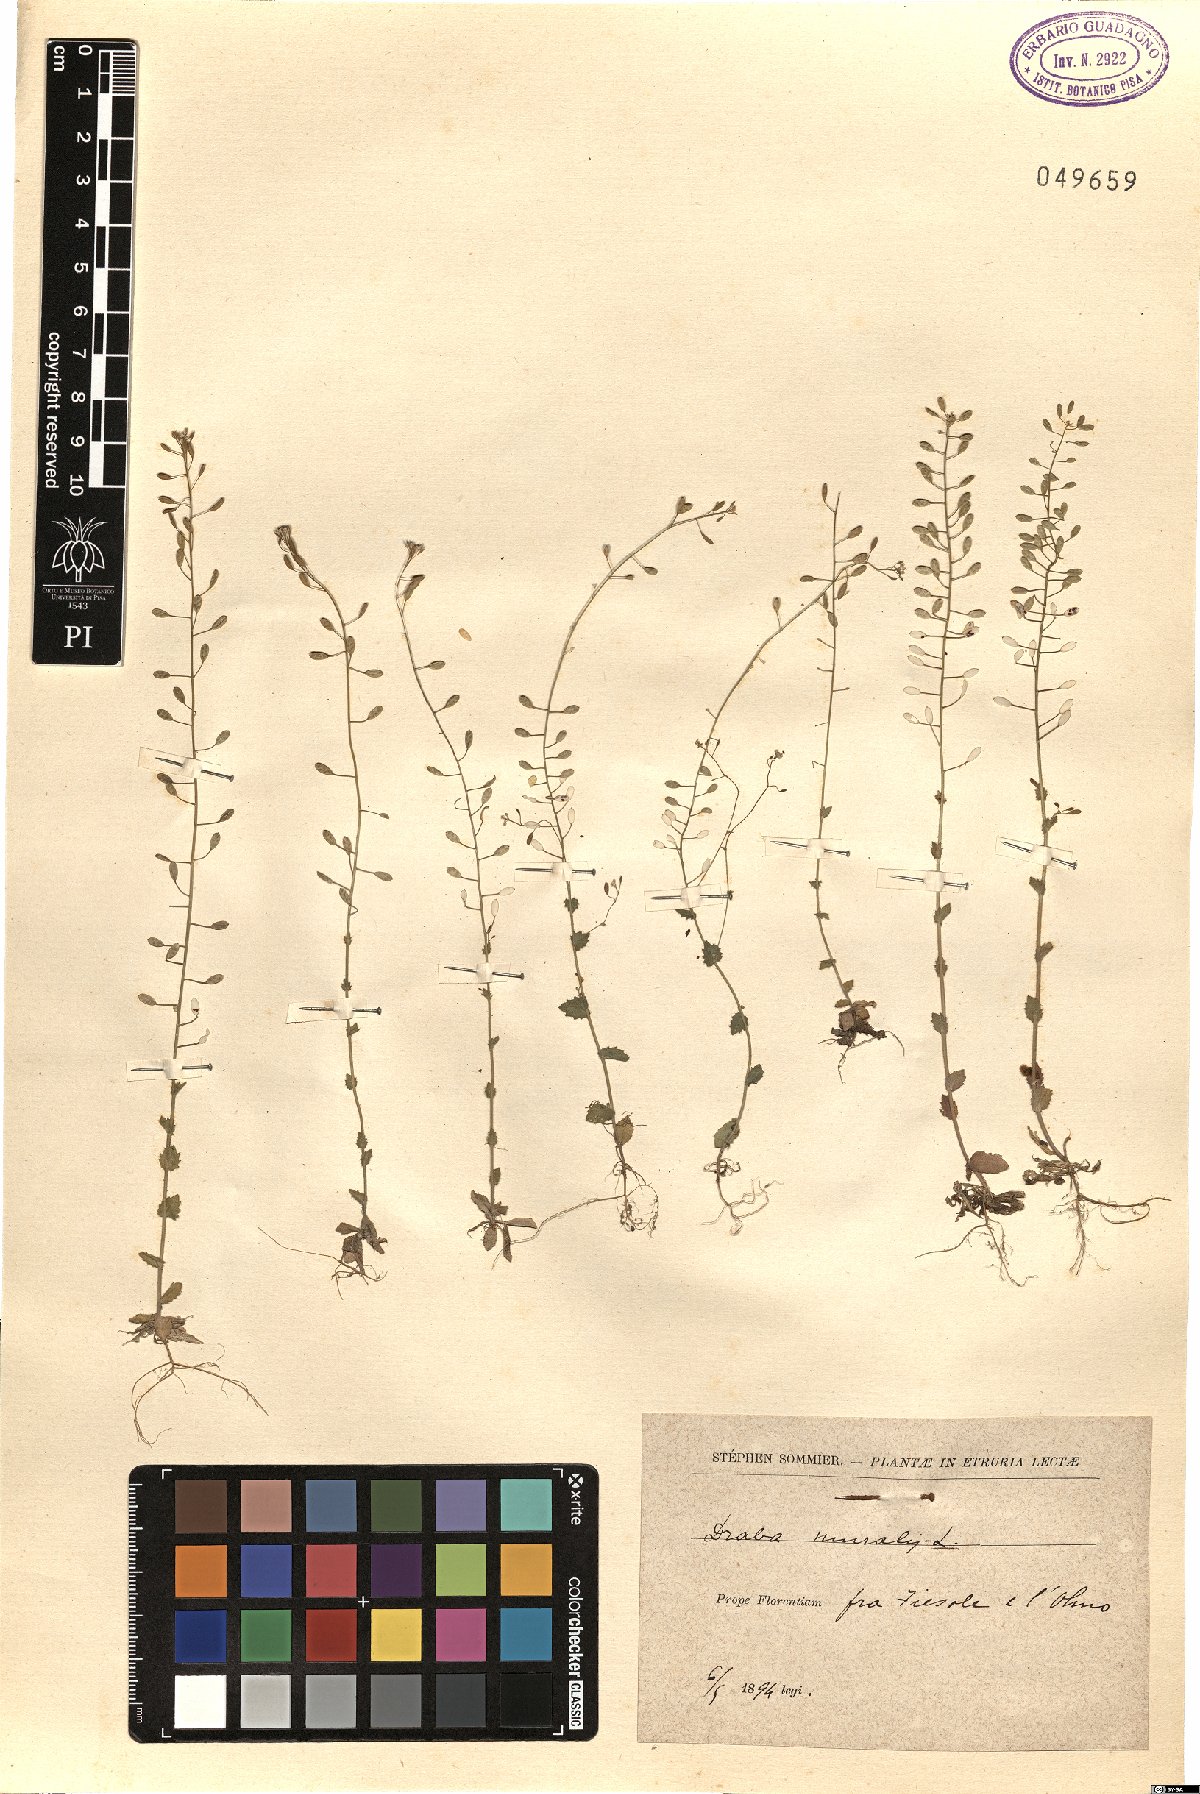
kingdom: Plantae
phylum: Tracheophyta
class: Magnoliopsida
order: Brassicales
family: Brassicaceae
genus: Drabella
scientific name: Drabella muralis
